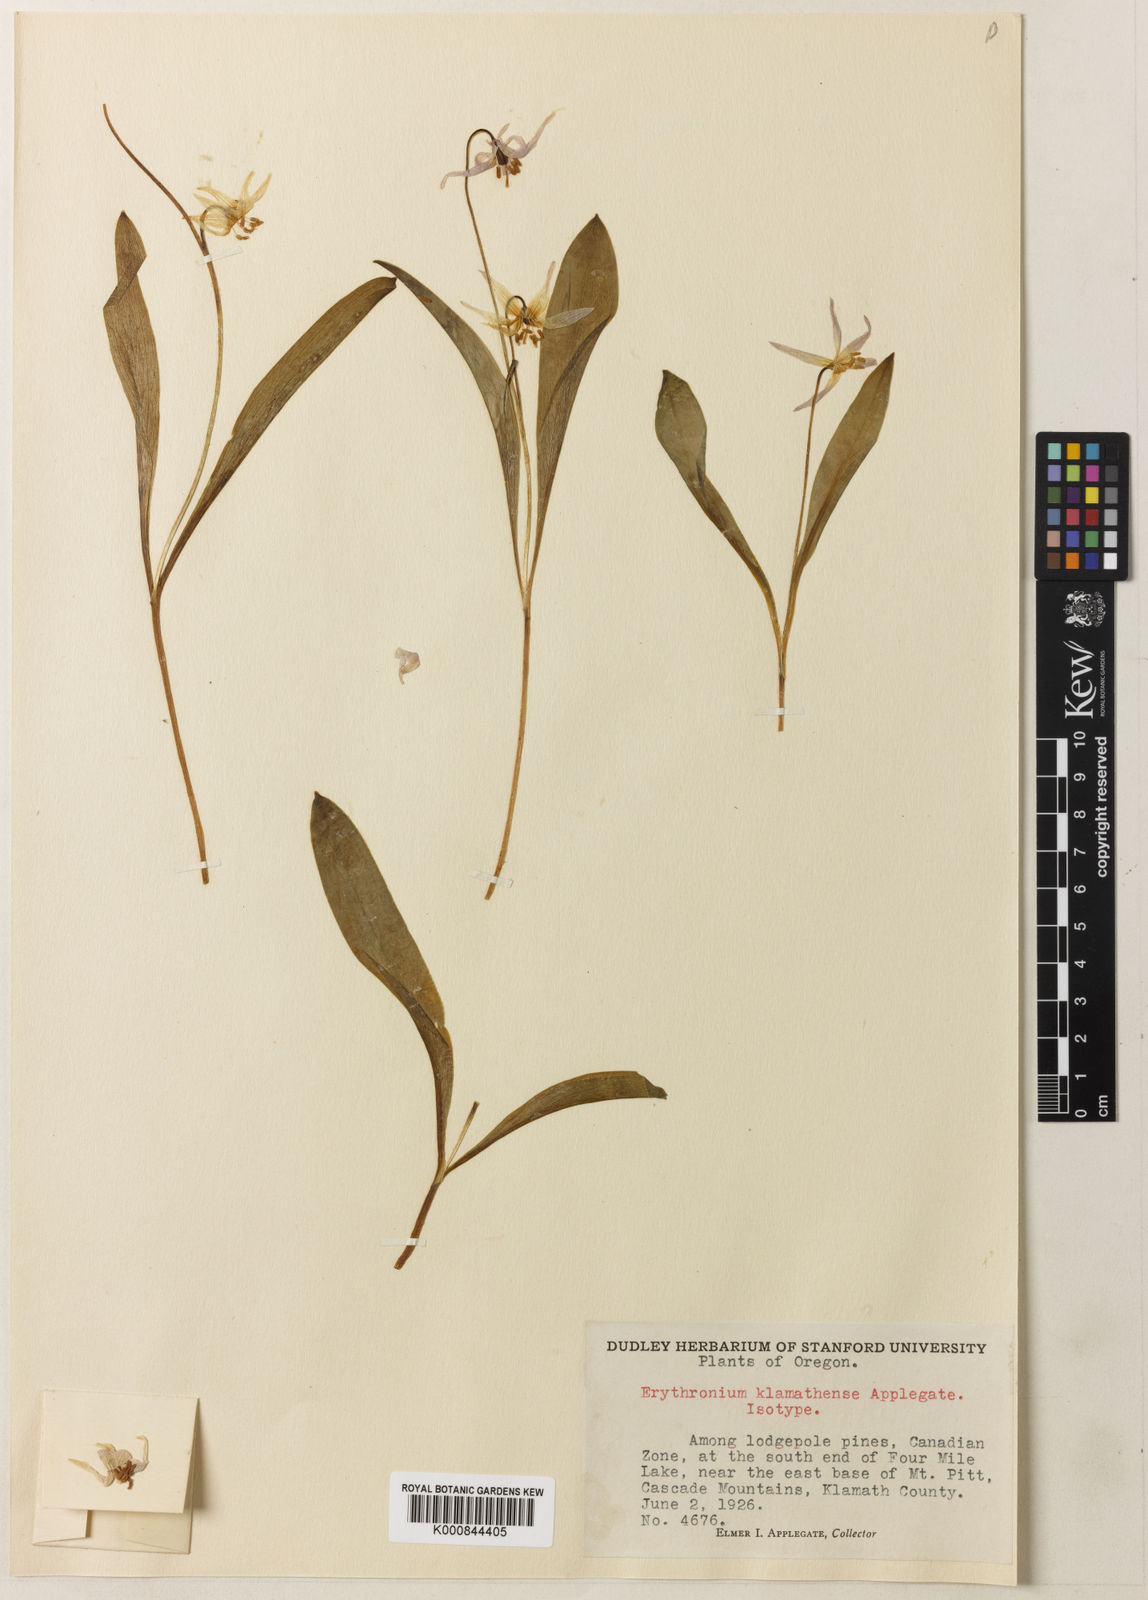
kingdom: Plantae
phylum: Tracheophyta
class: Liliopsida
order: Liliales
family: Liliaceae
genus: Erythronium
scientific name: Erythronium klamathense
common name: Klamath fawn-lily
